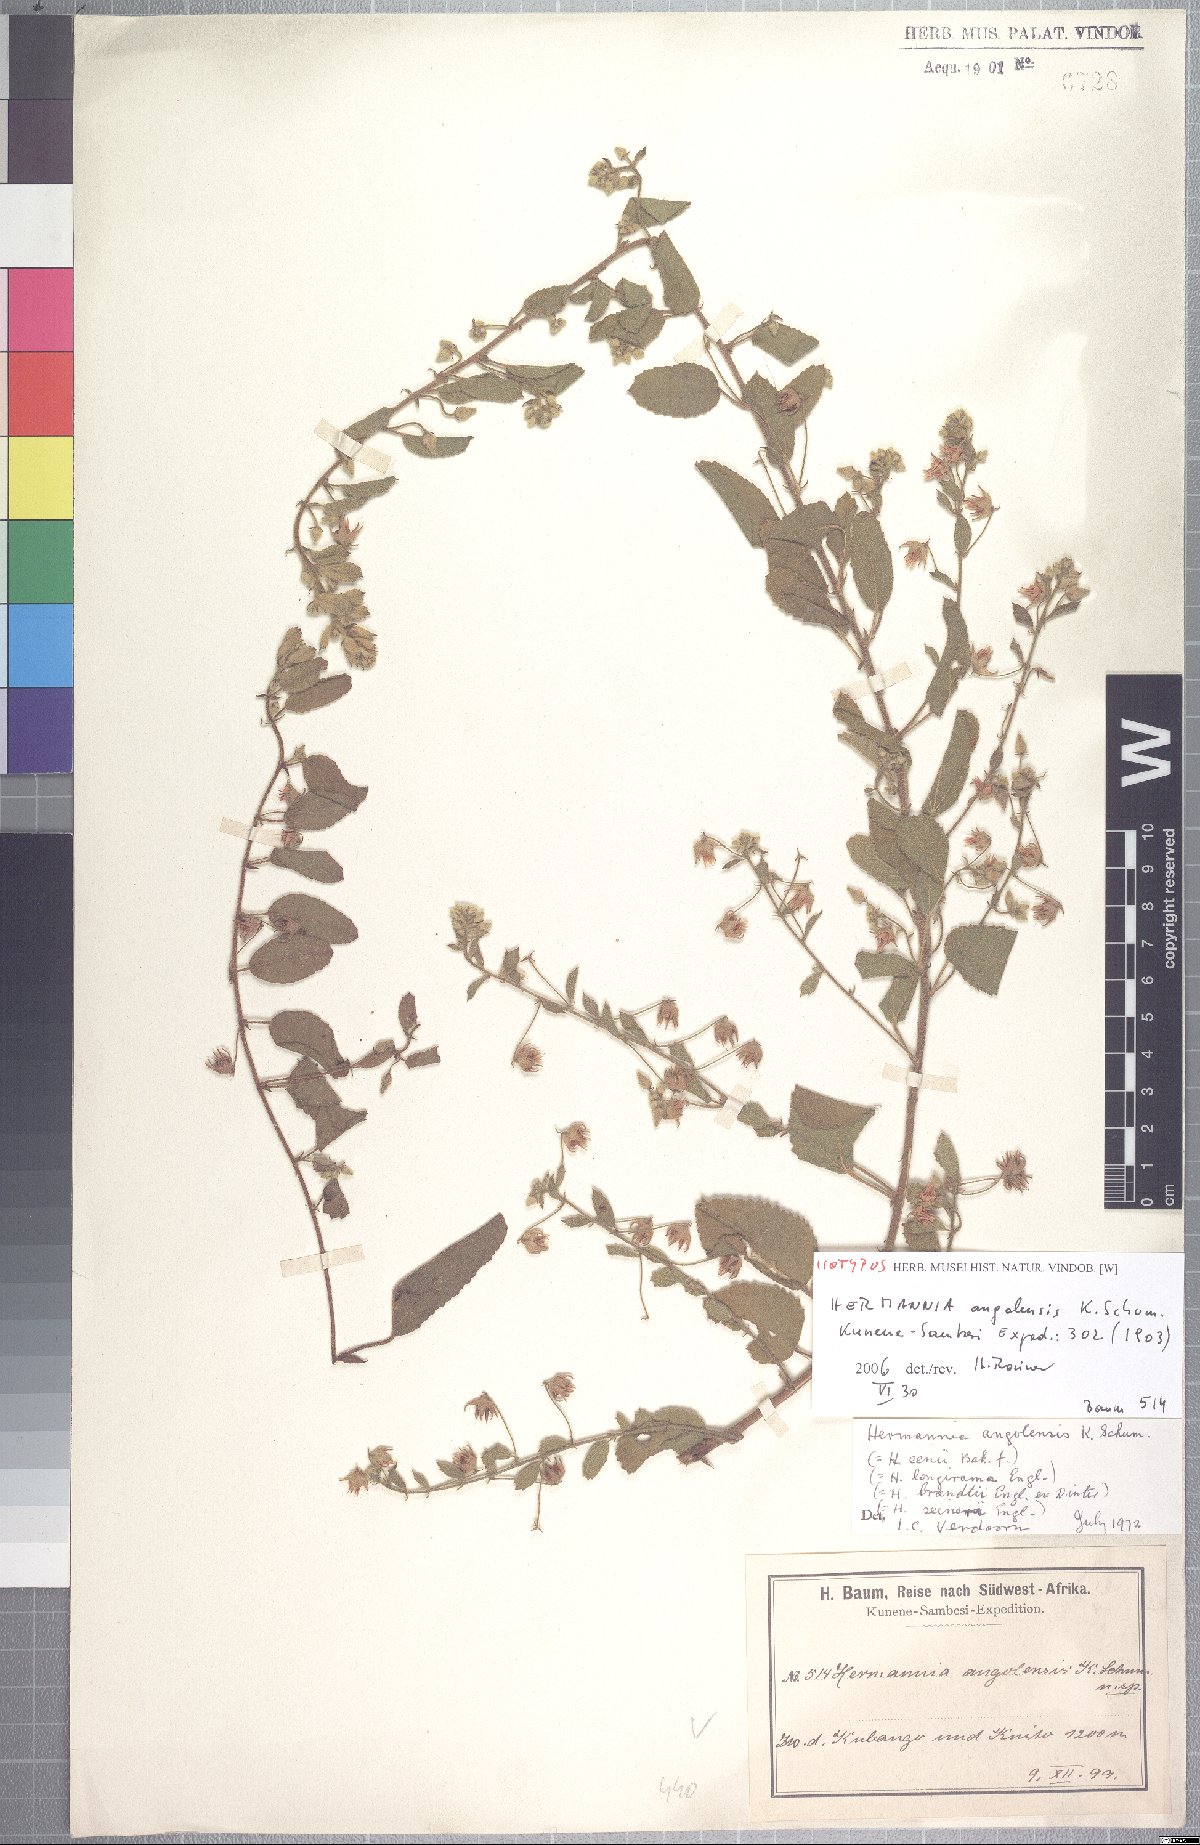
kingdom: Plantae
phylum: Tracheophyta
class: Magnoliopsida
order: Malvales
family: Malvaceae
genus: Hermannia
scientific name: Hermannia eenii
